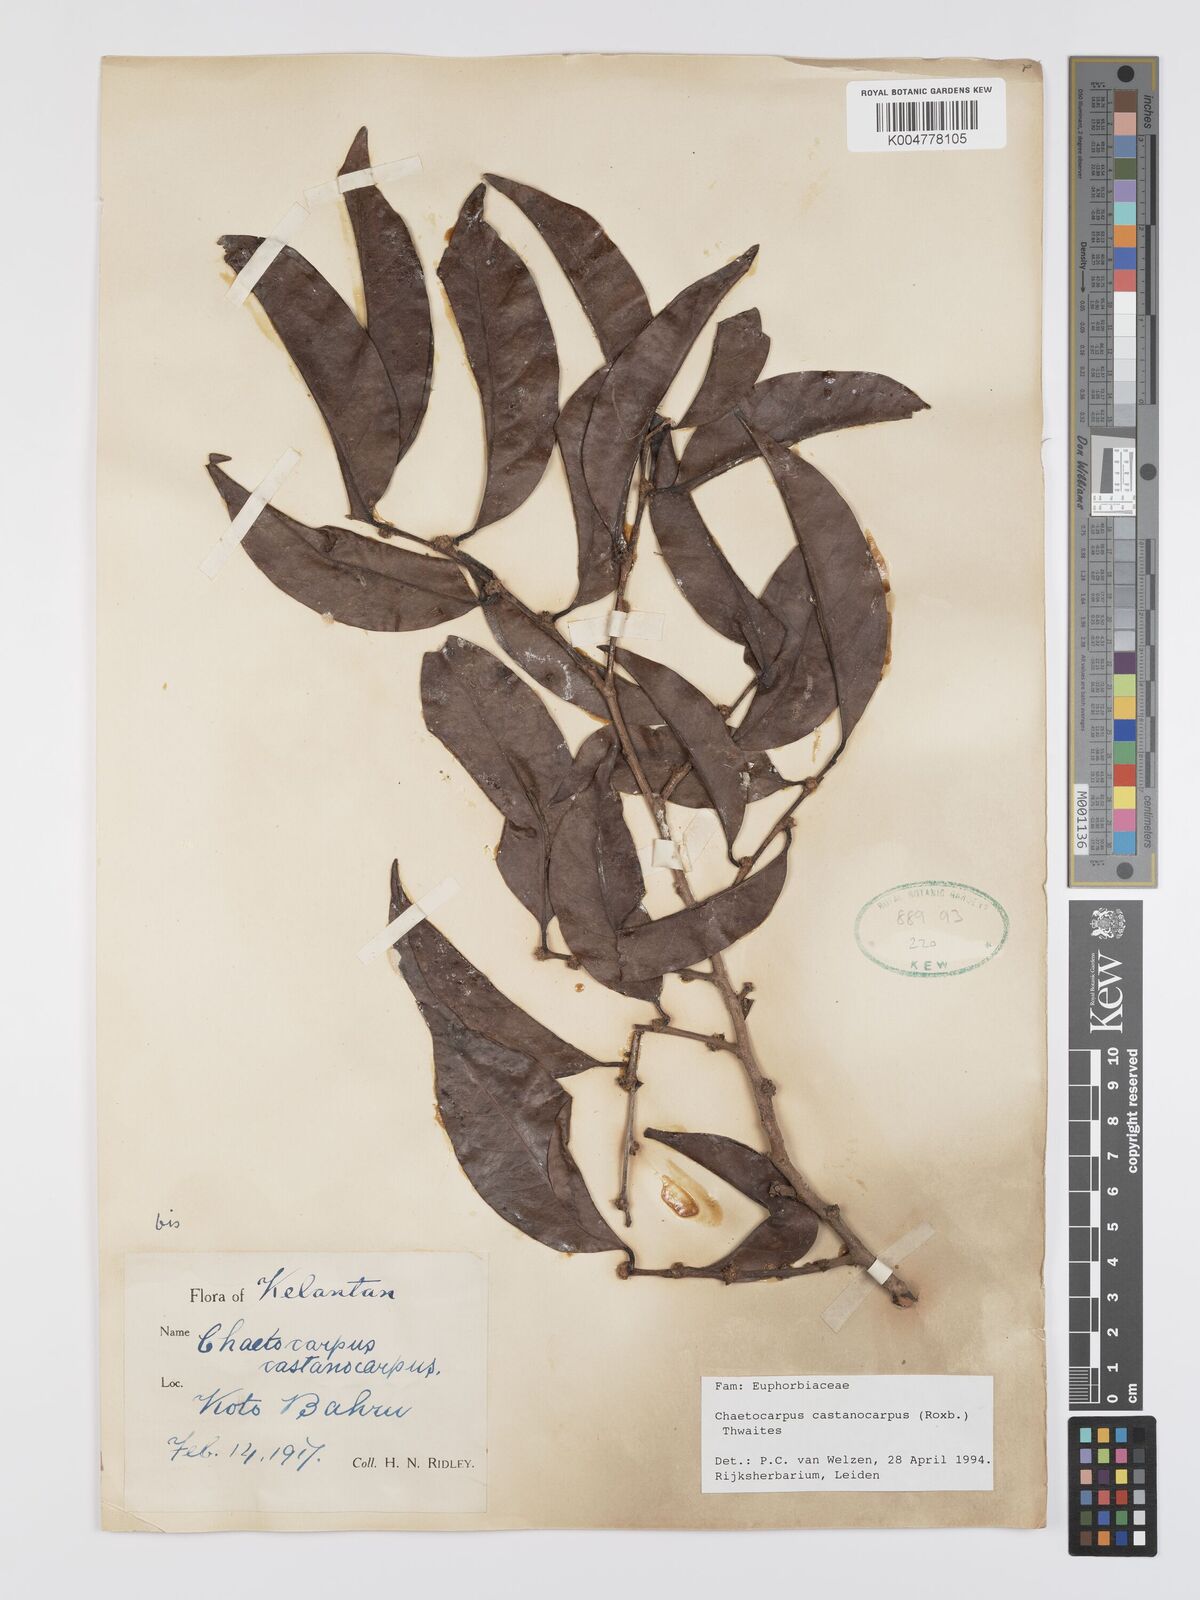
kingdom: Plantae
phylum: Tracheophyta
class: Magnoliopsida
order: Malpighiales
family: Peraceae
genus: Chaetocarpus
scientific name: Chaetocarpus castanocarpus
